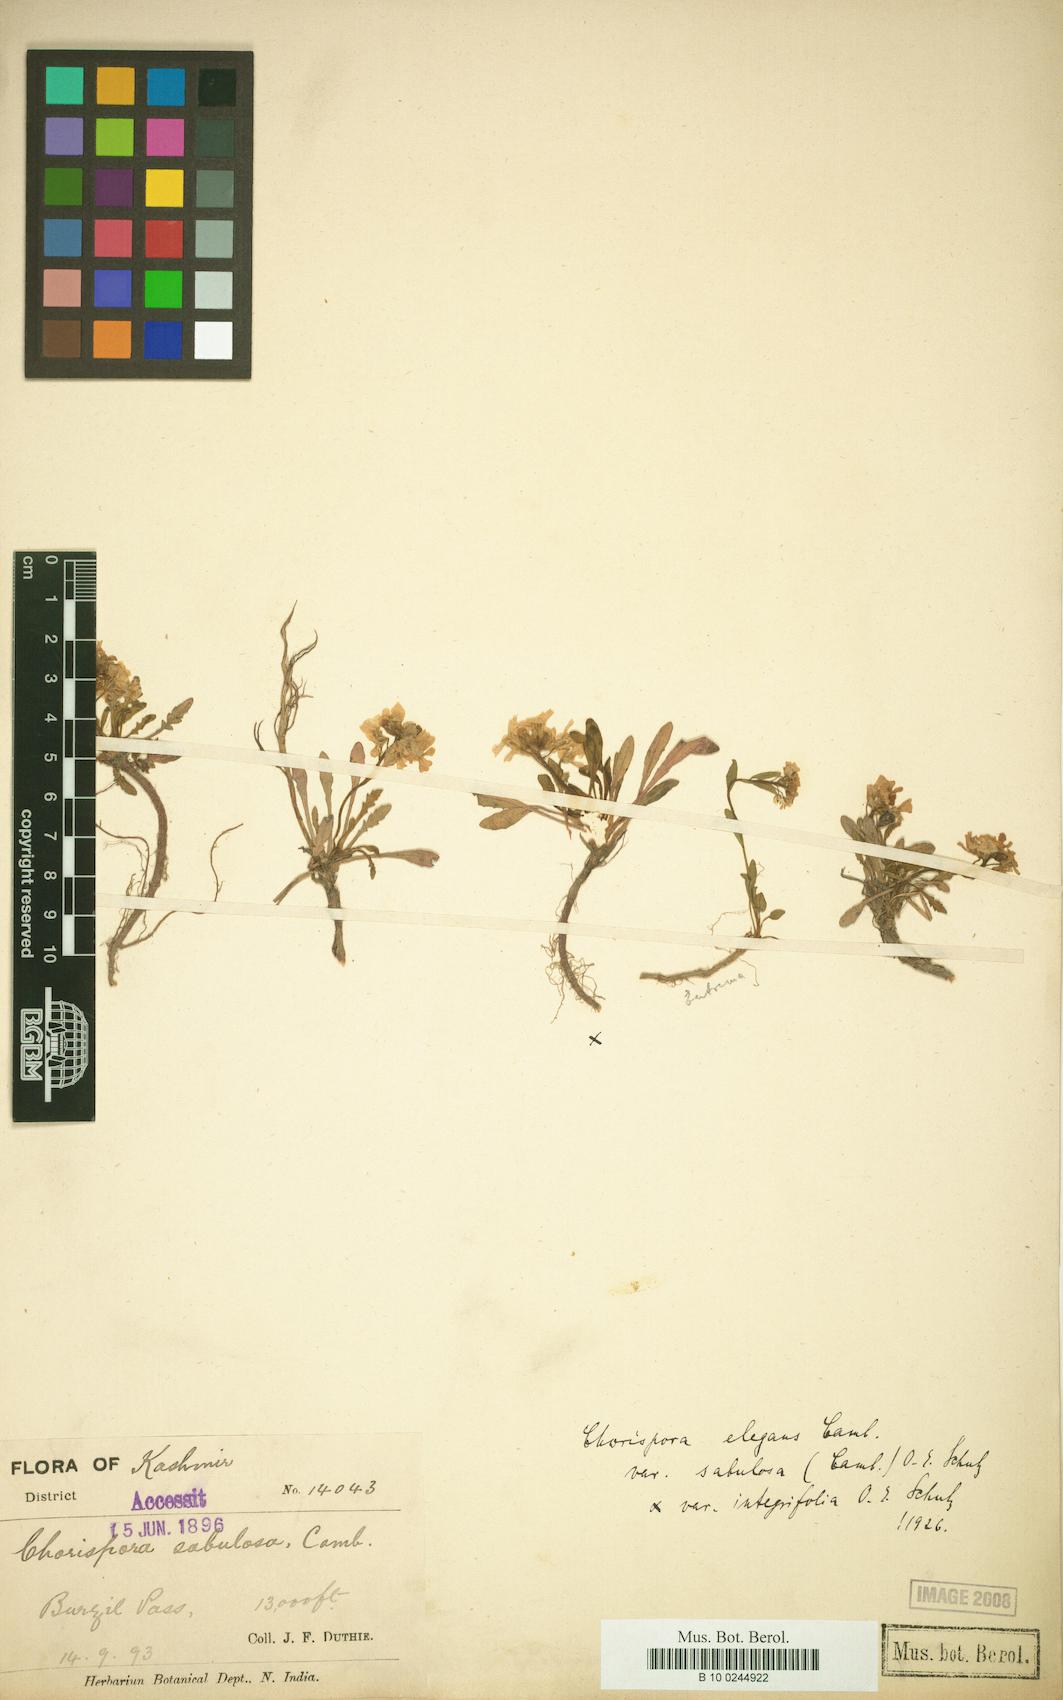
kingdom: Plantae
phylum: Tracheophyta
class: Magnoliopsida
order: Brassicales
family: Brassicaceae
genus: Chorispora
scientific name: Chorispora sabulosa
